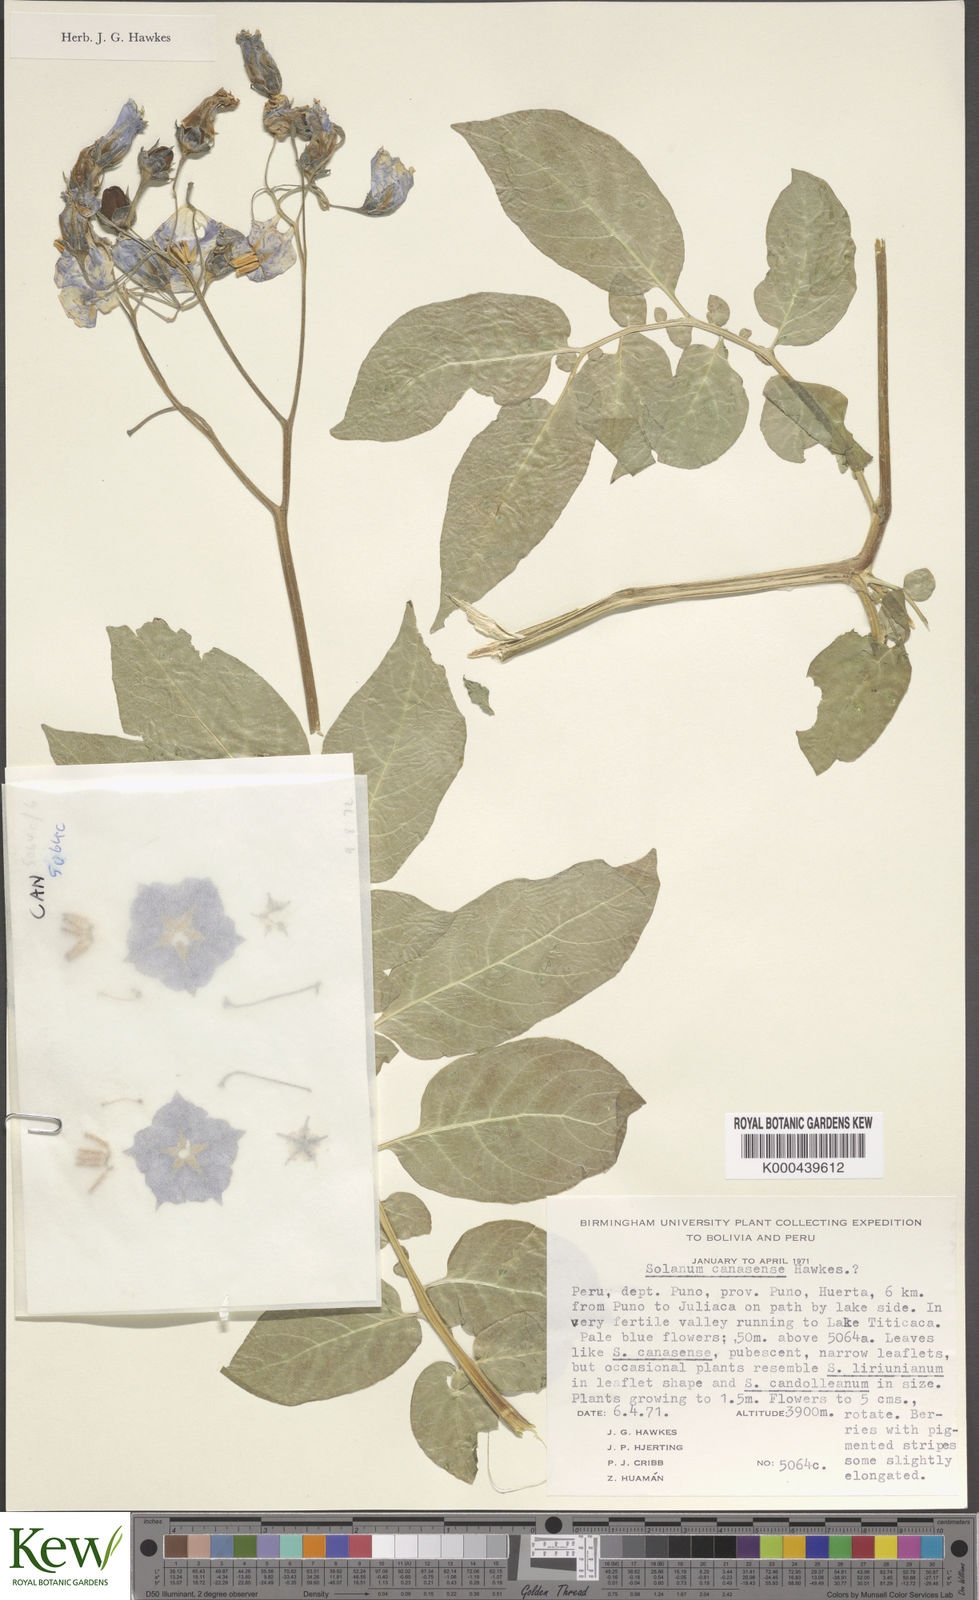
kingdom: Plantae
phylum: Tracheophyta
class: Magnoliopsida
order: Solanales
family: Solanaceae
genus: Solanum
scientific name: Solanum candolleanum
